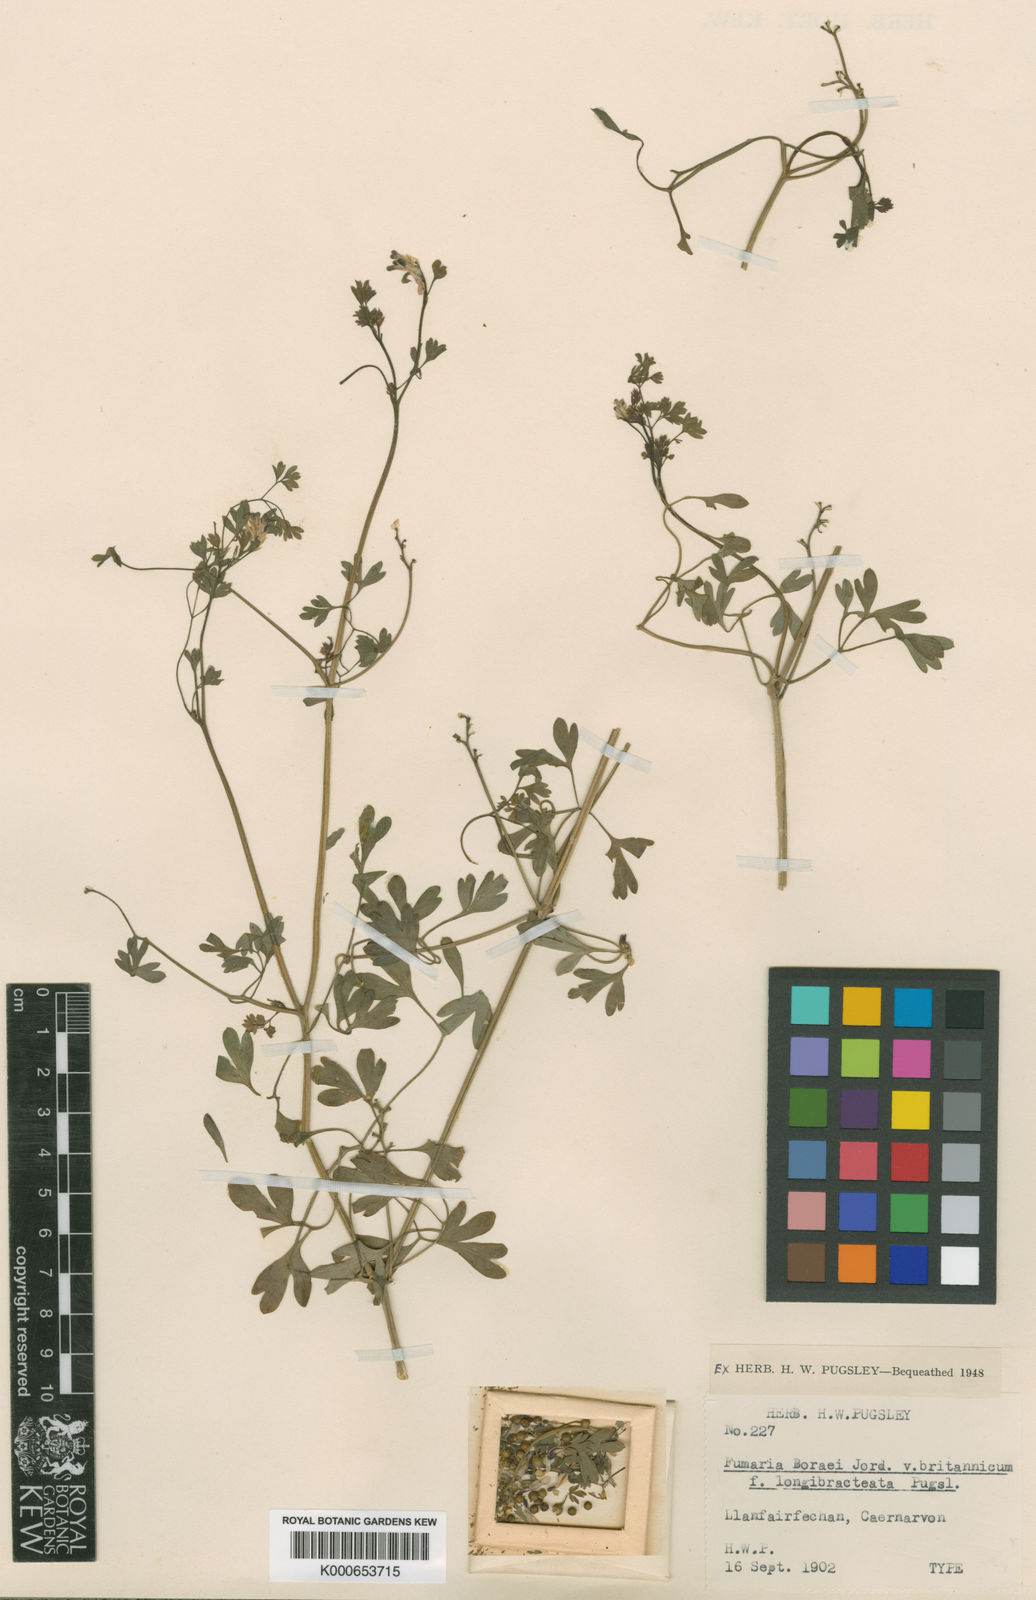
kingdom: Plantae
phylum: Tracheophyta
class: Magnoliopsida
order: Ranunculales
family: Papaveraceae
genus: Fumaria
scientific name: Fumaria muralis
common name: Common ramping-fumitory
